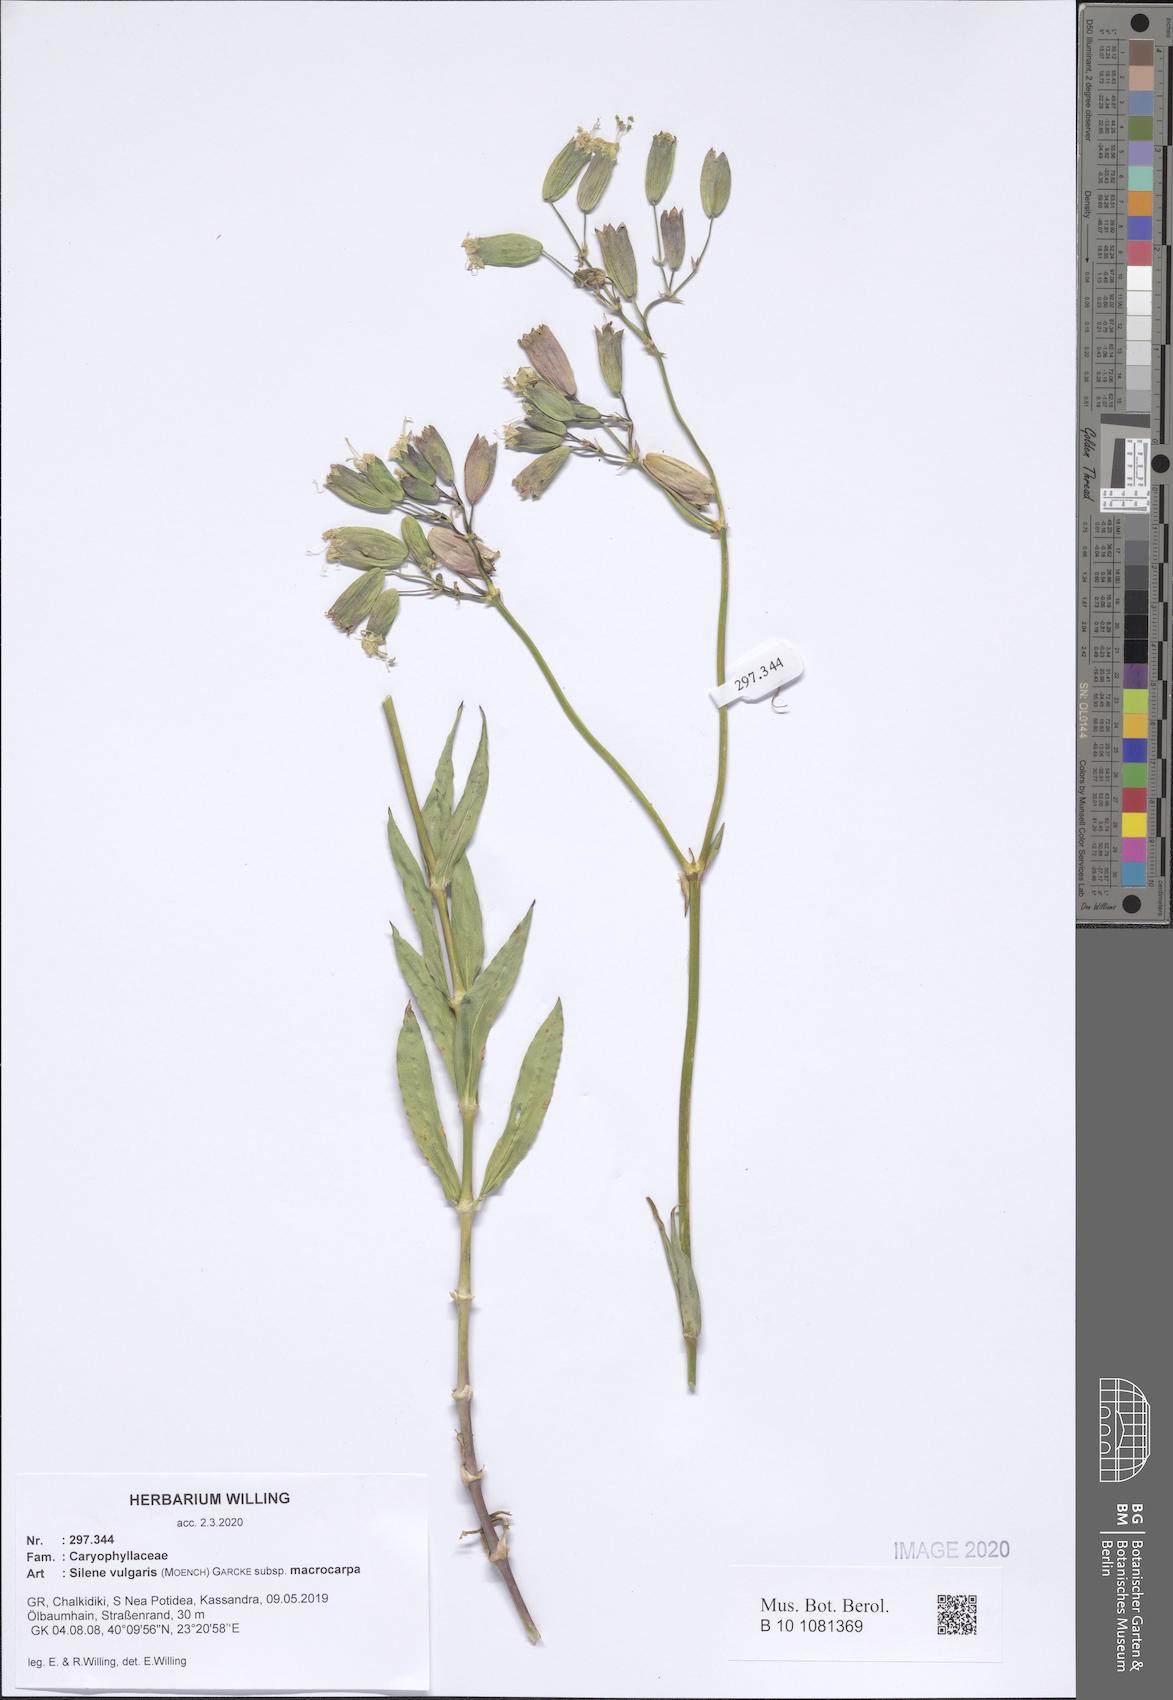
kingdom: Plantae
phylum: Tracheophyta
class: Magnoliopsida
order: Caryophyllales
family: Caryophyllaceae
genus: Silene
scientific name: Silene vulgaris
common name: Bladder campion
